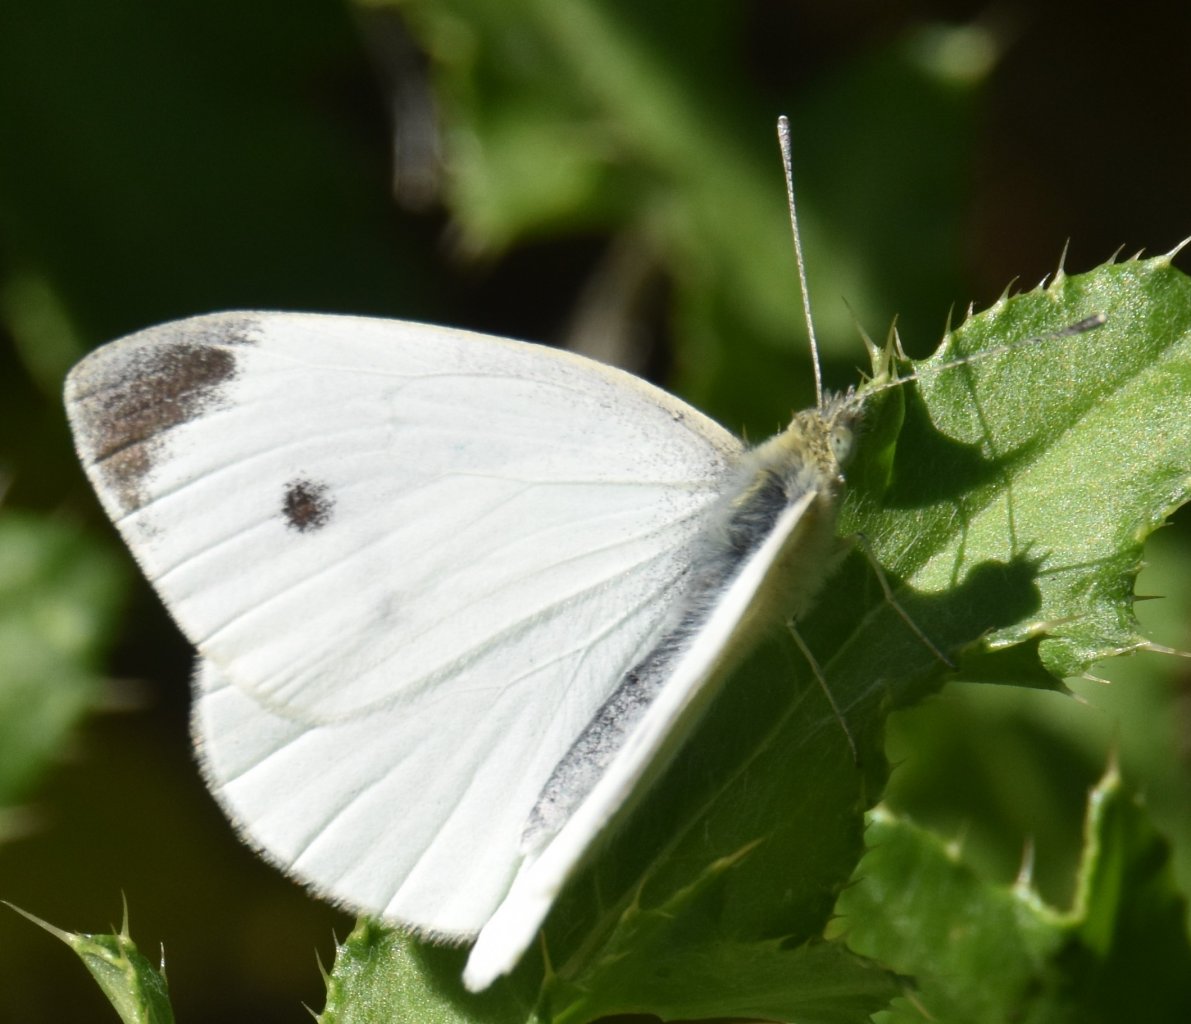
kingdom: Animalia
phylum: Arthropoda
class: Insecta
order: Lepidoptera
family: Pieridae
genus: Pieris
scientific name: Pieris rapae
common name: Cabbage White
